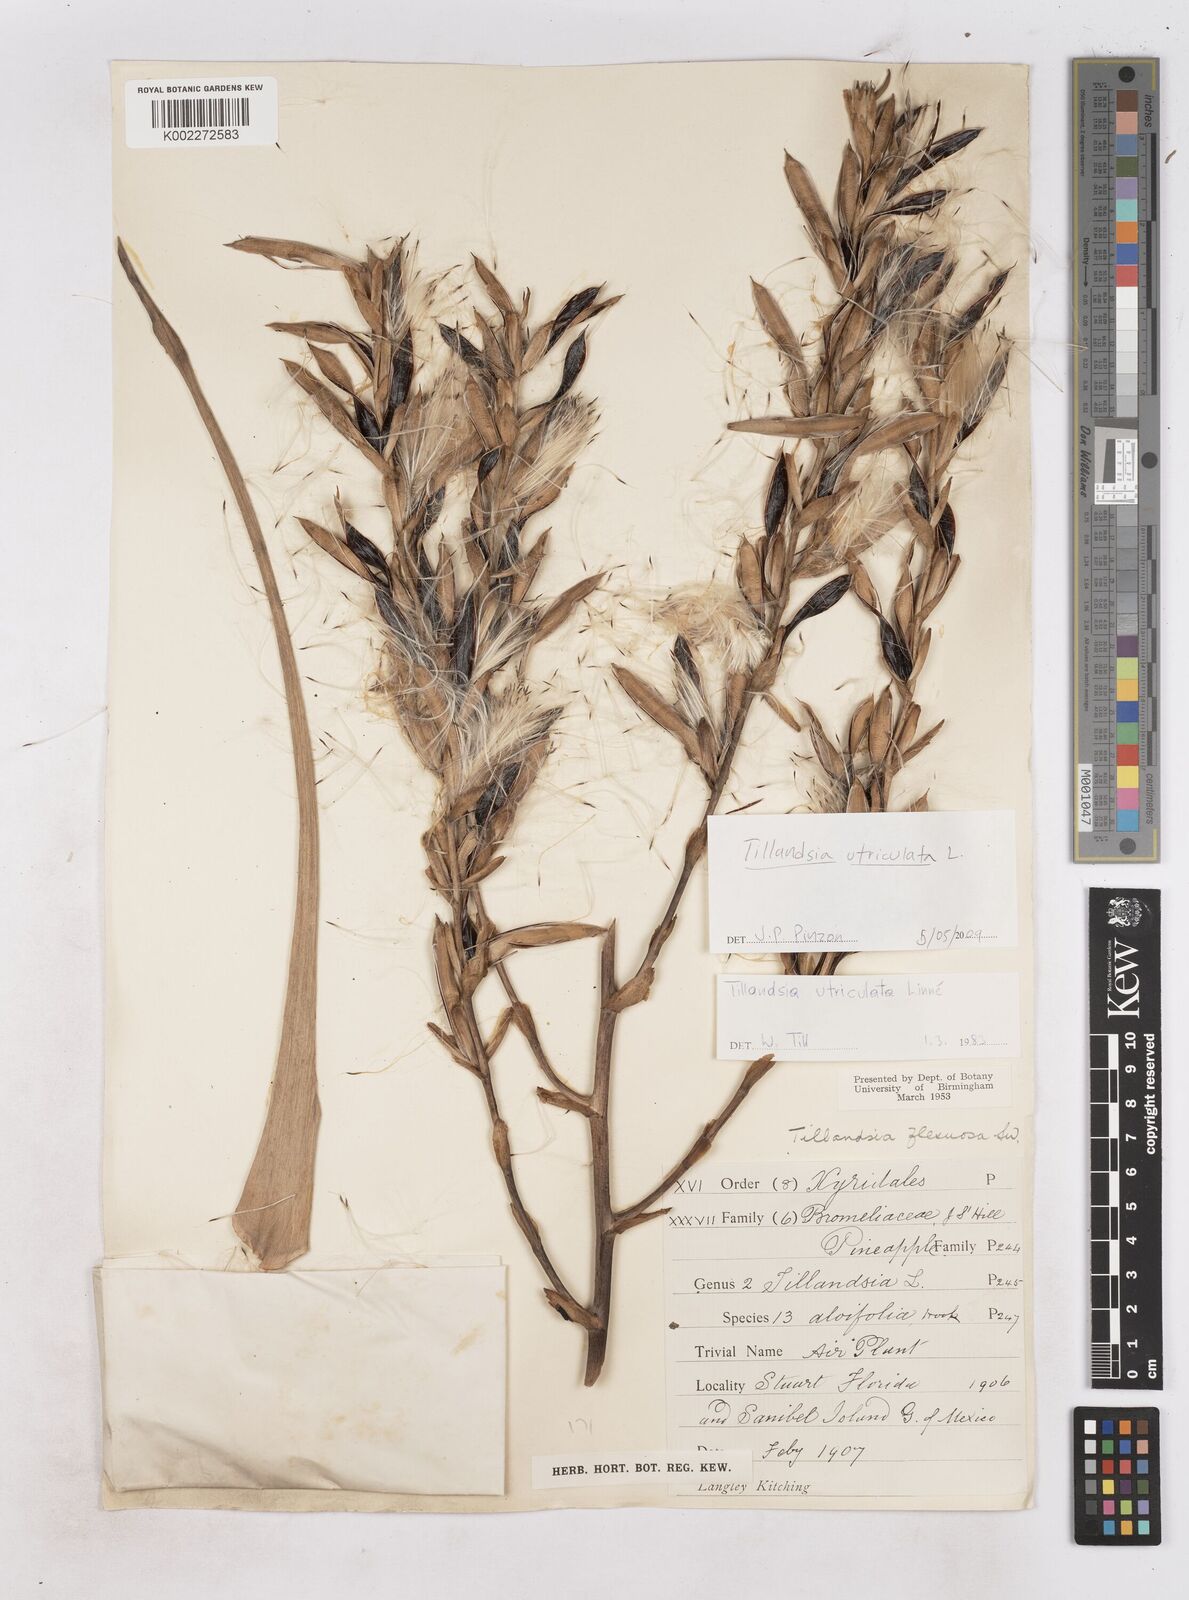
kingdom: Plantae
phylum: Tracheophyta
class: Liliopsida
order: Poales
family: Bromeliaceae
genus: Tillandsia
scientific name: Tillandsia utriculata
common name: Wild pine
